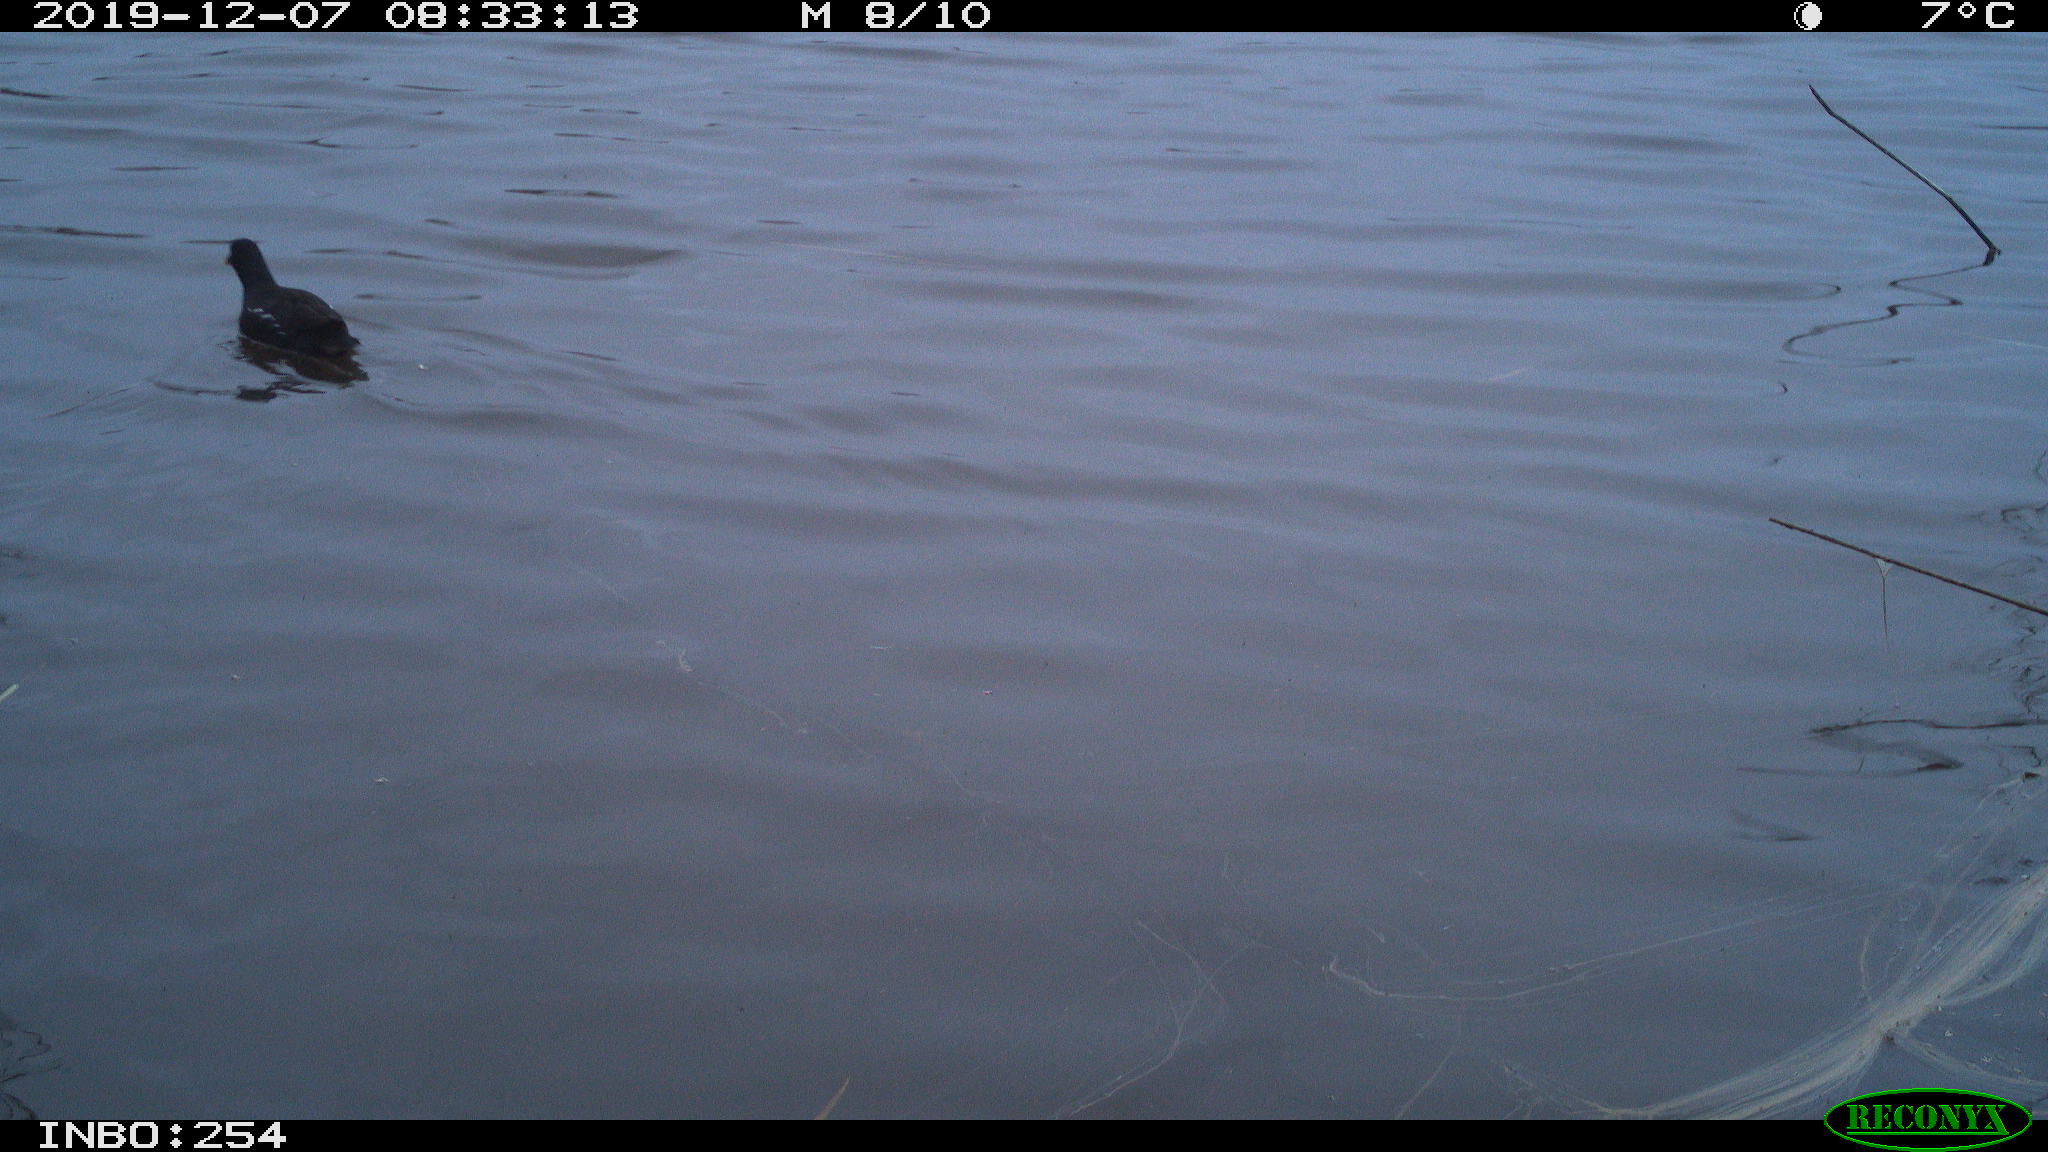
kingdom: Animalia
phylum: Chordata
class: Aves
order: Gruiformes
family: Rallidae
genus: Gallinula
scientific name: Gallinula chloropus
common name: Common moorhen
